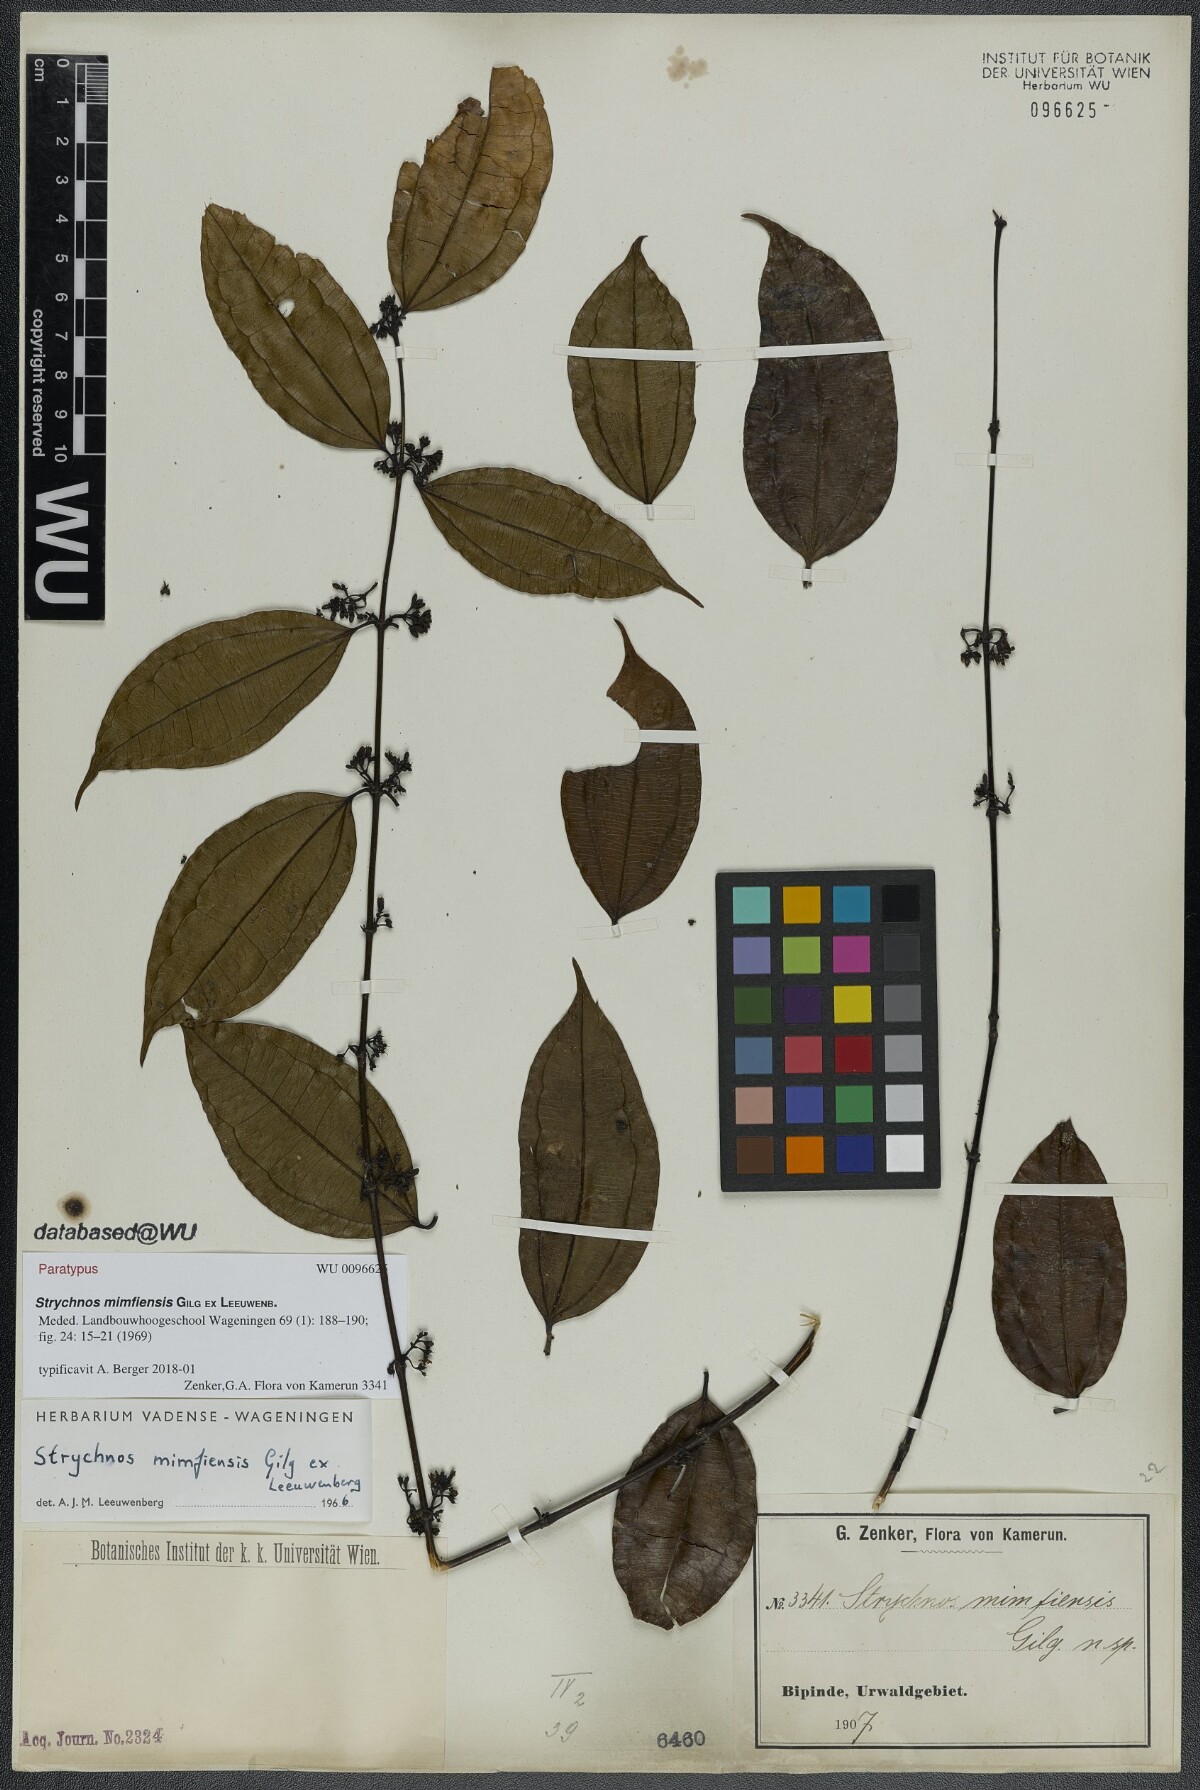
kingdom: Plantae
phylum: Tracheophyta
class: Magnoliopsida
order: Gentianales
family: Loganiaceae
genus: Strychnos
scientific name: Strychnos mimfiensis
